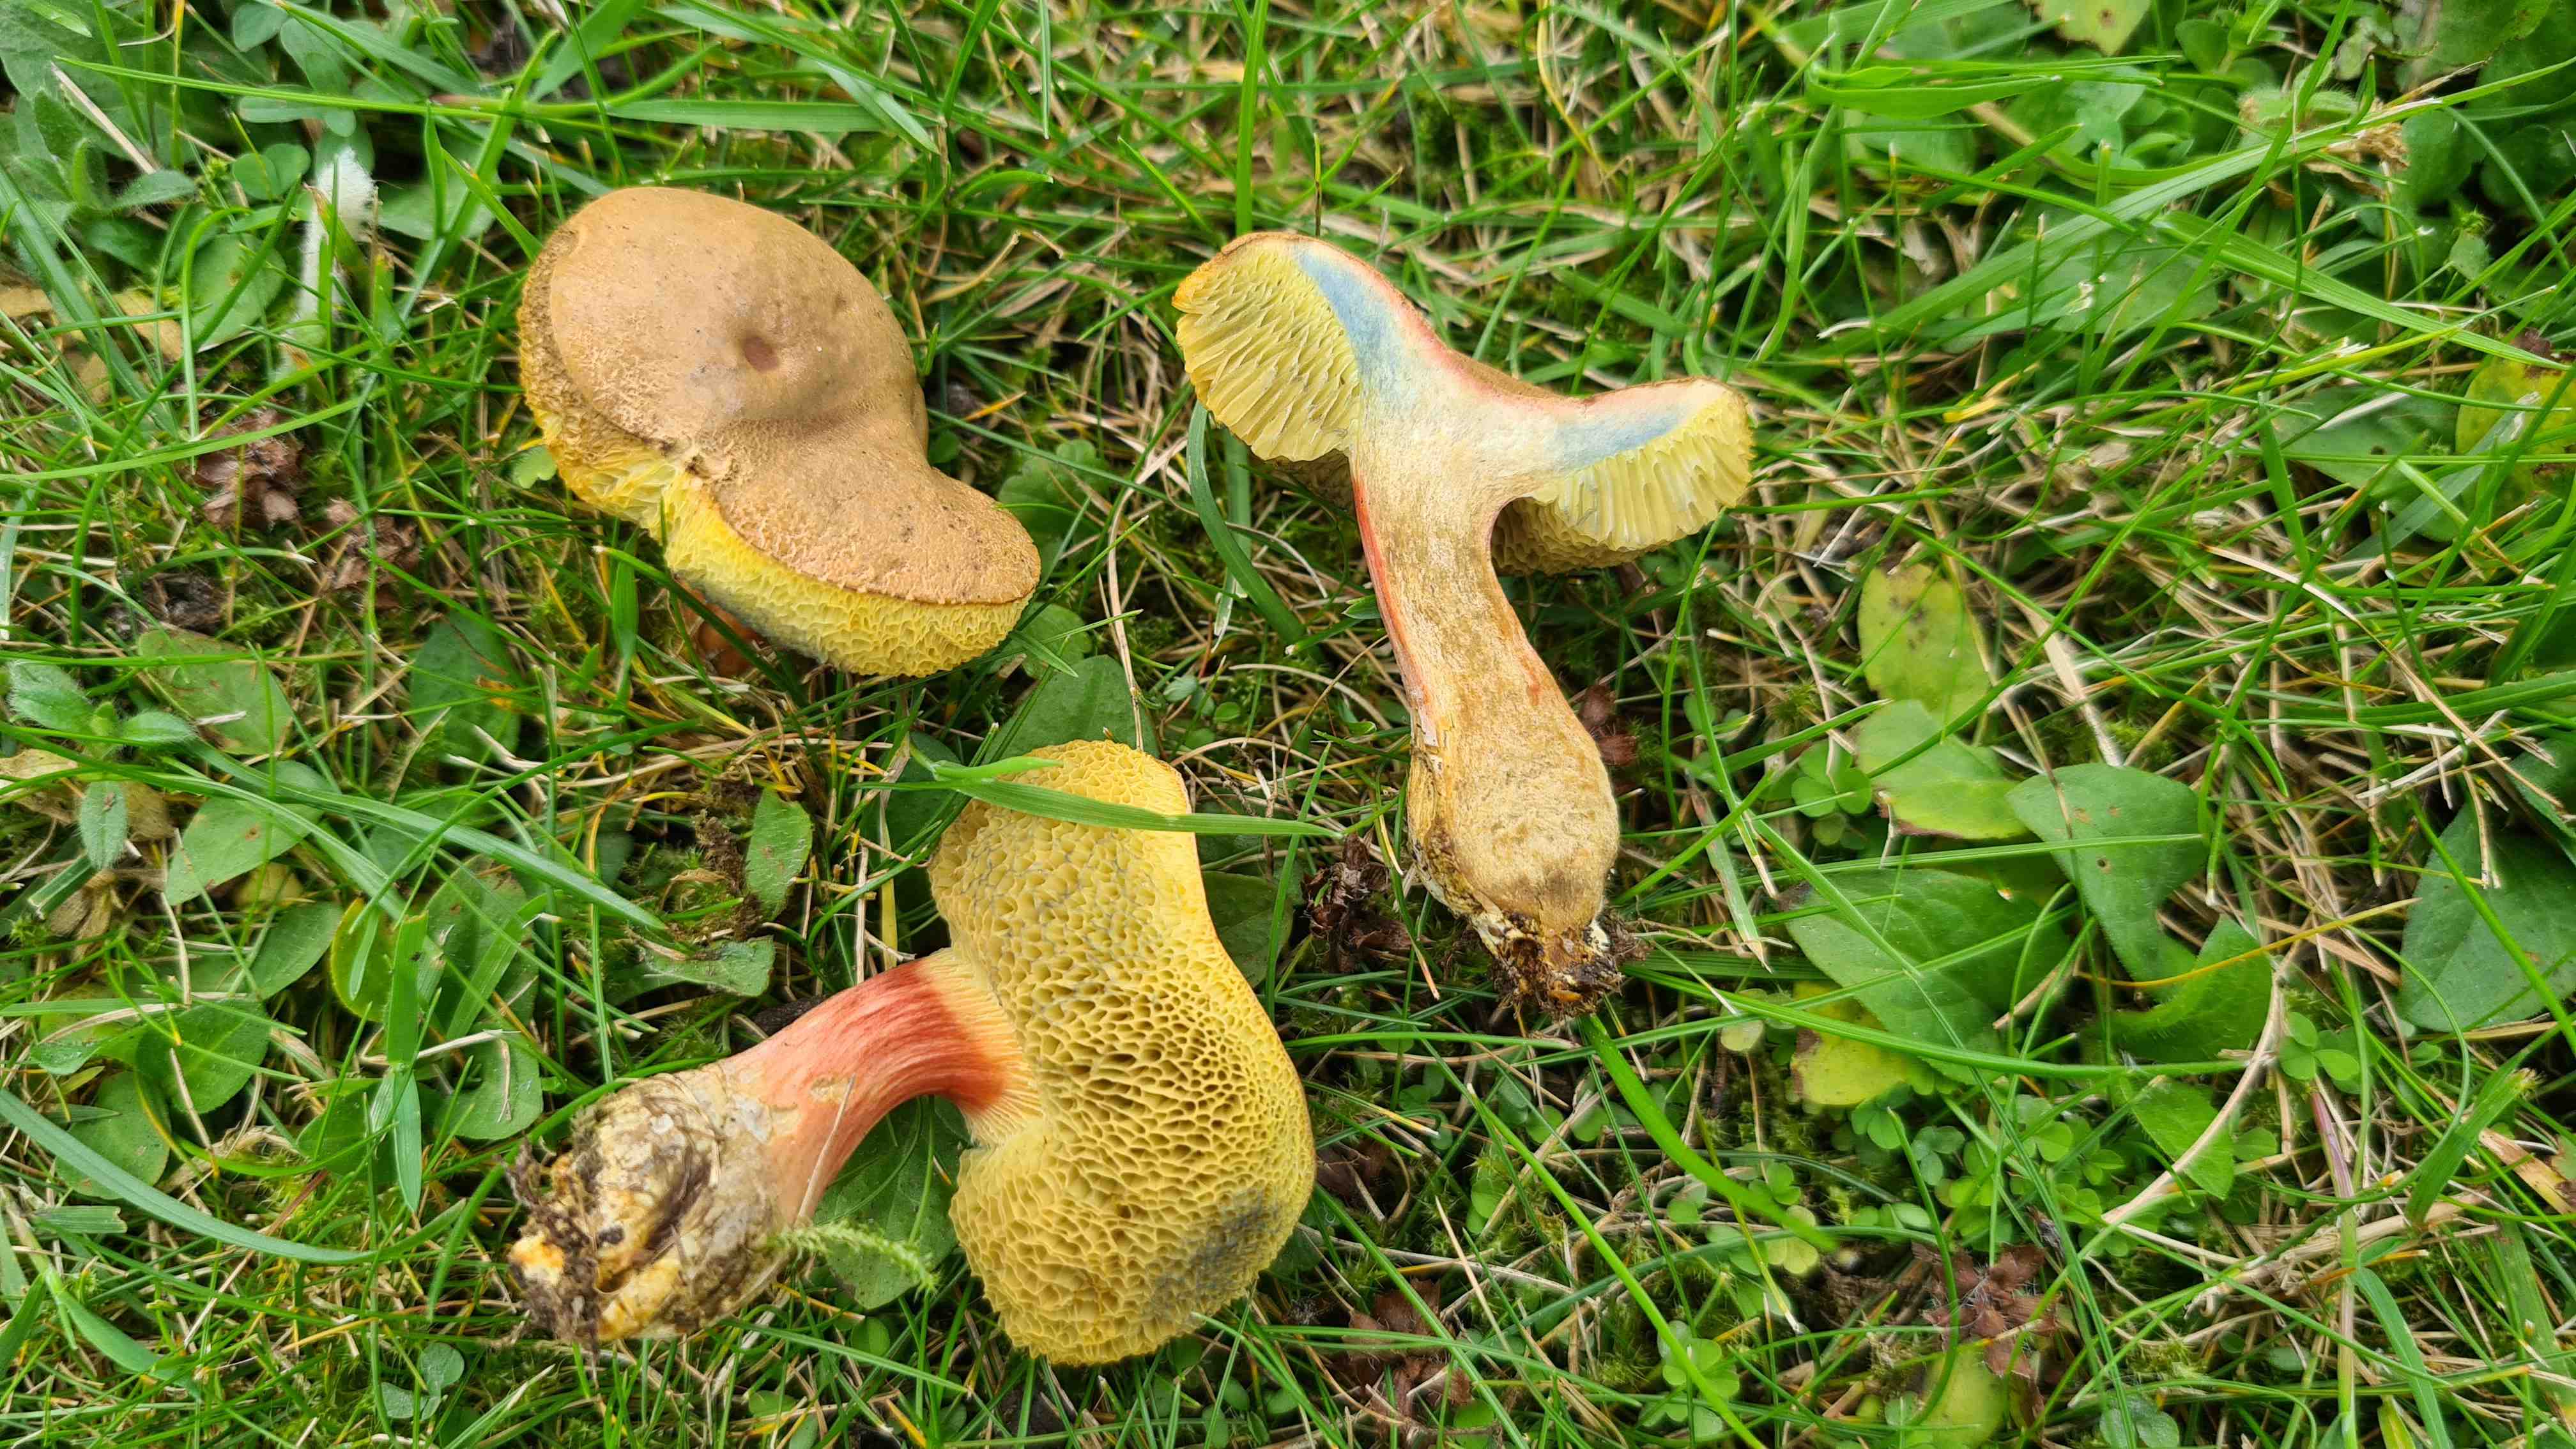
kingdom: Fungi
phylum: Basidiomycota
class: Agaricomycetes
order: Boletales
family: Boletaceae
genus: Hortiboletus
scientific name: Hortiboletus bubalinus
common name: aurora-rørhat
